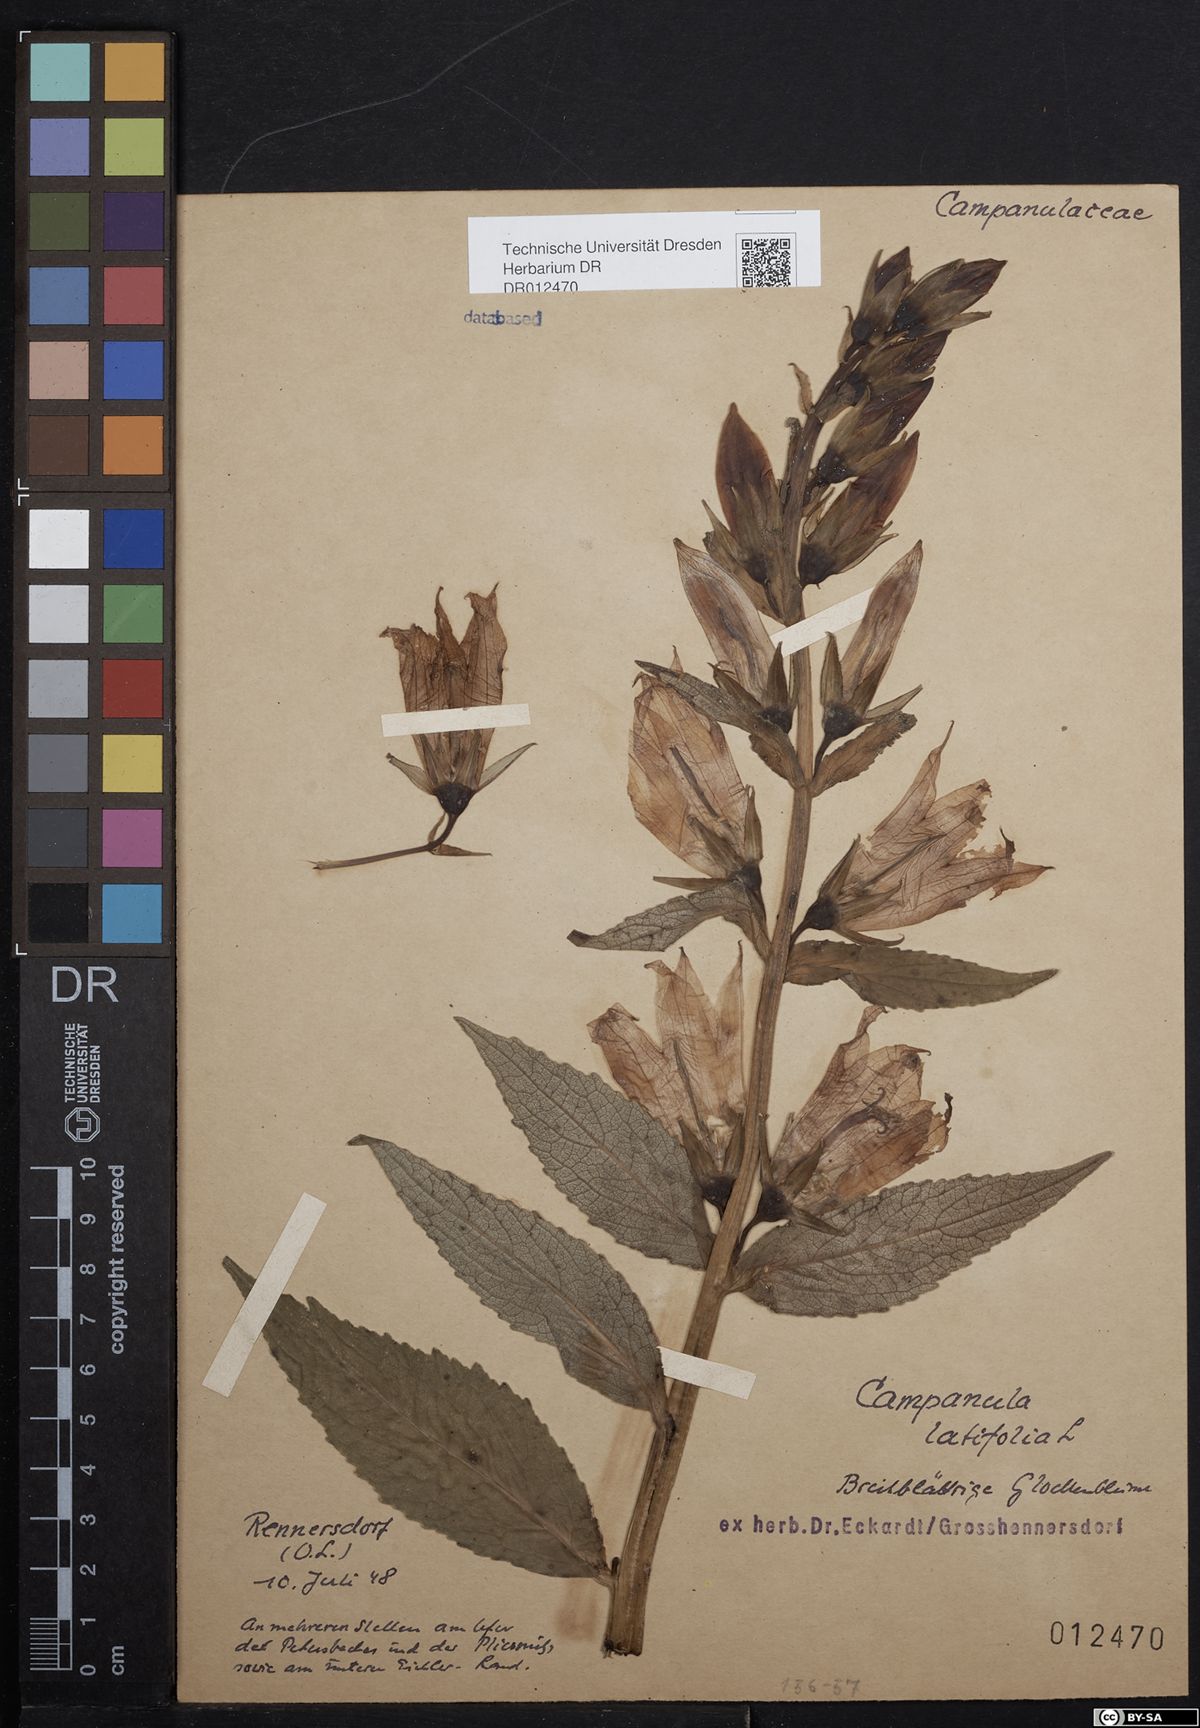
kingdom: Plantae
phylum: Tracheophyta
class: Magnoliopsida
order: Asterales
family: Campanulaceae
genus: Campanula
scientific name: Campanula latifolia
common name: Giant bellflower
